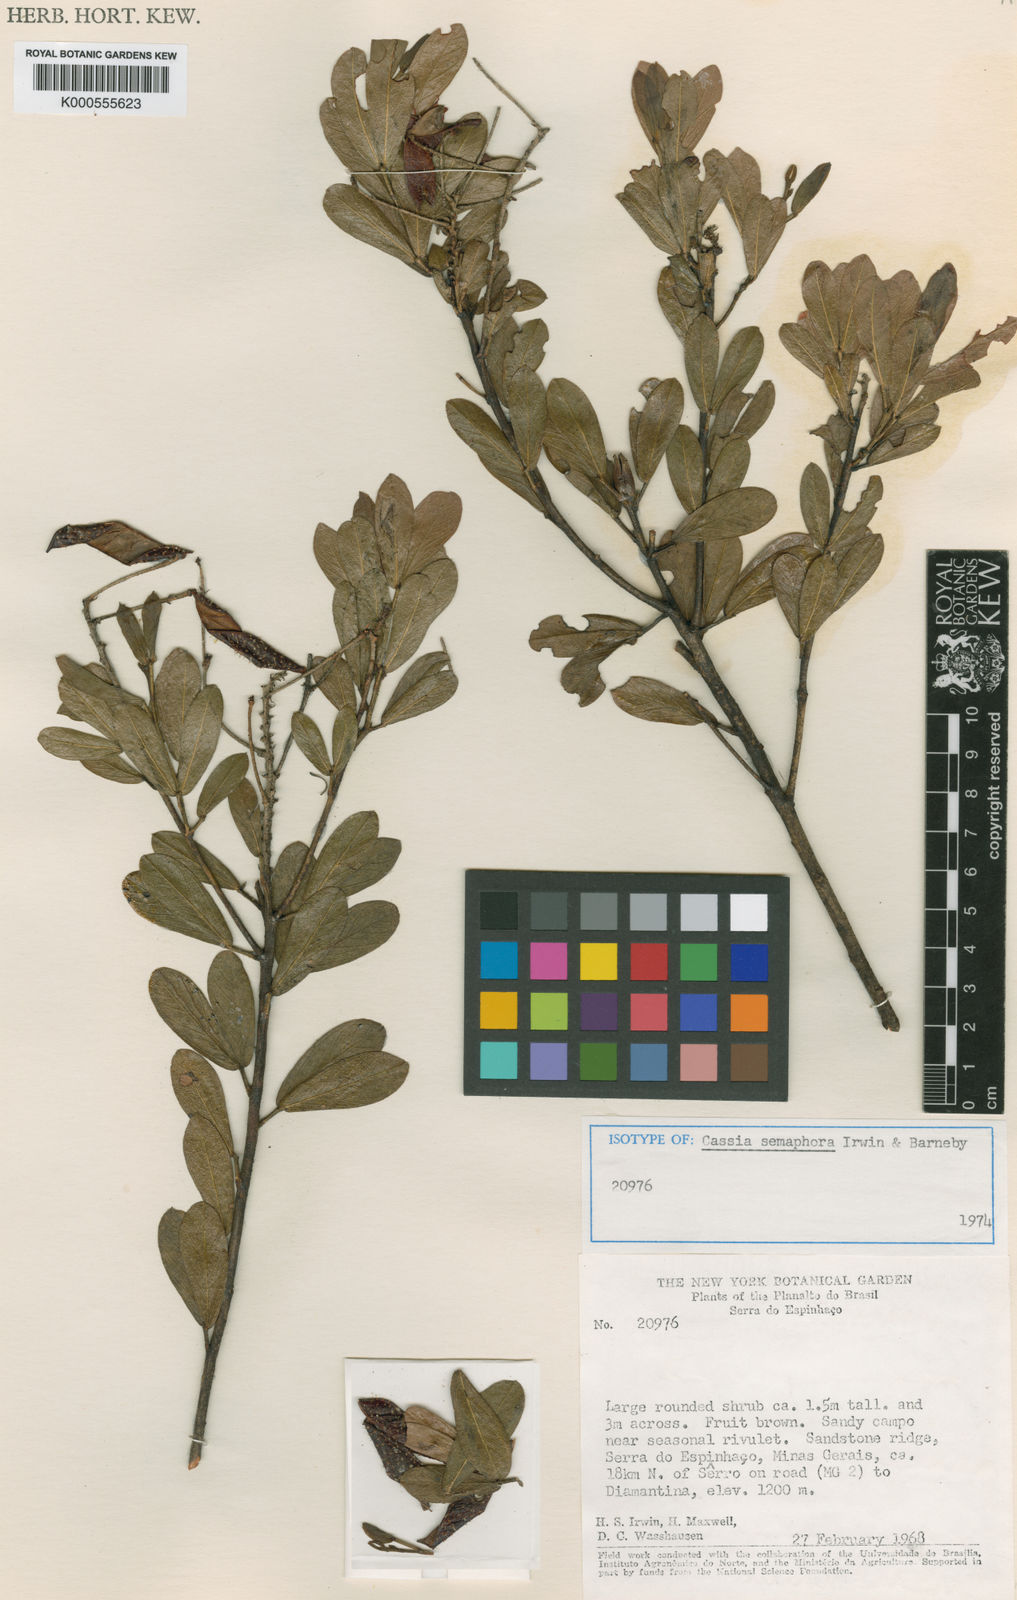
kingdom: Plantae
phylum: Tracheophyta
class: Magnoliopsida
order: Fabales
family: Fabaceae
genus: Chamaecrista
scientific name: Chamaecrista semaphora
